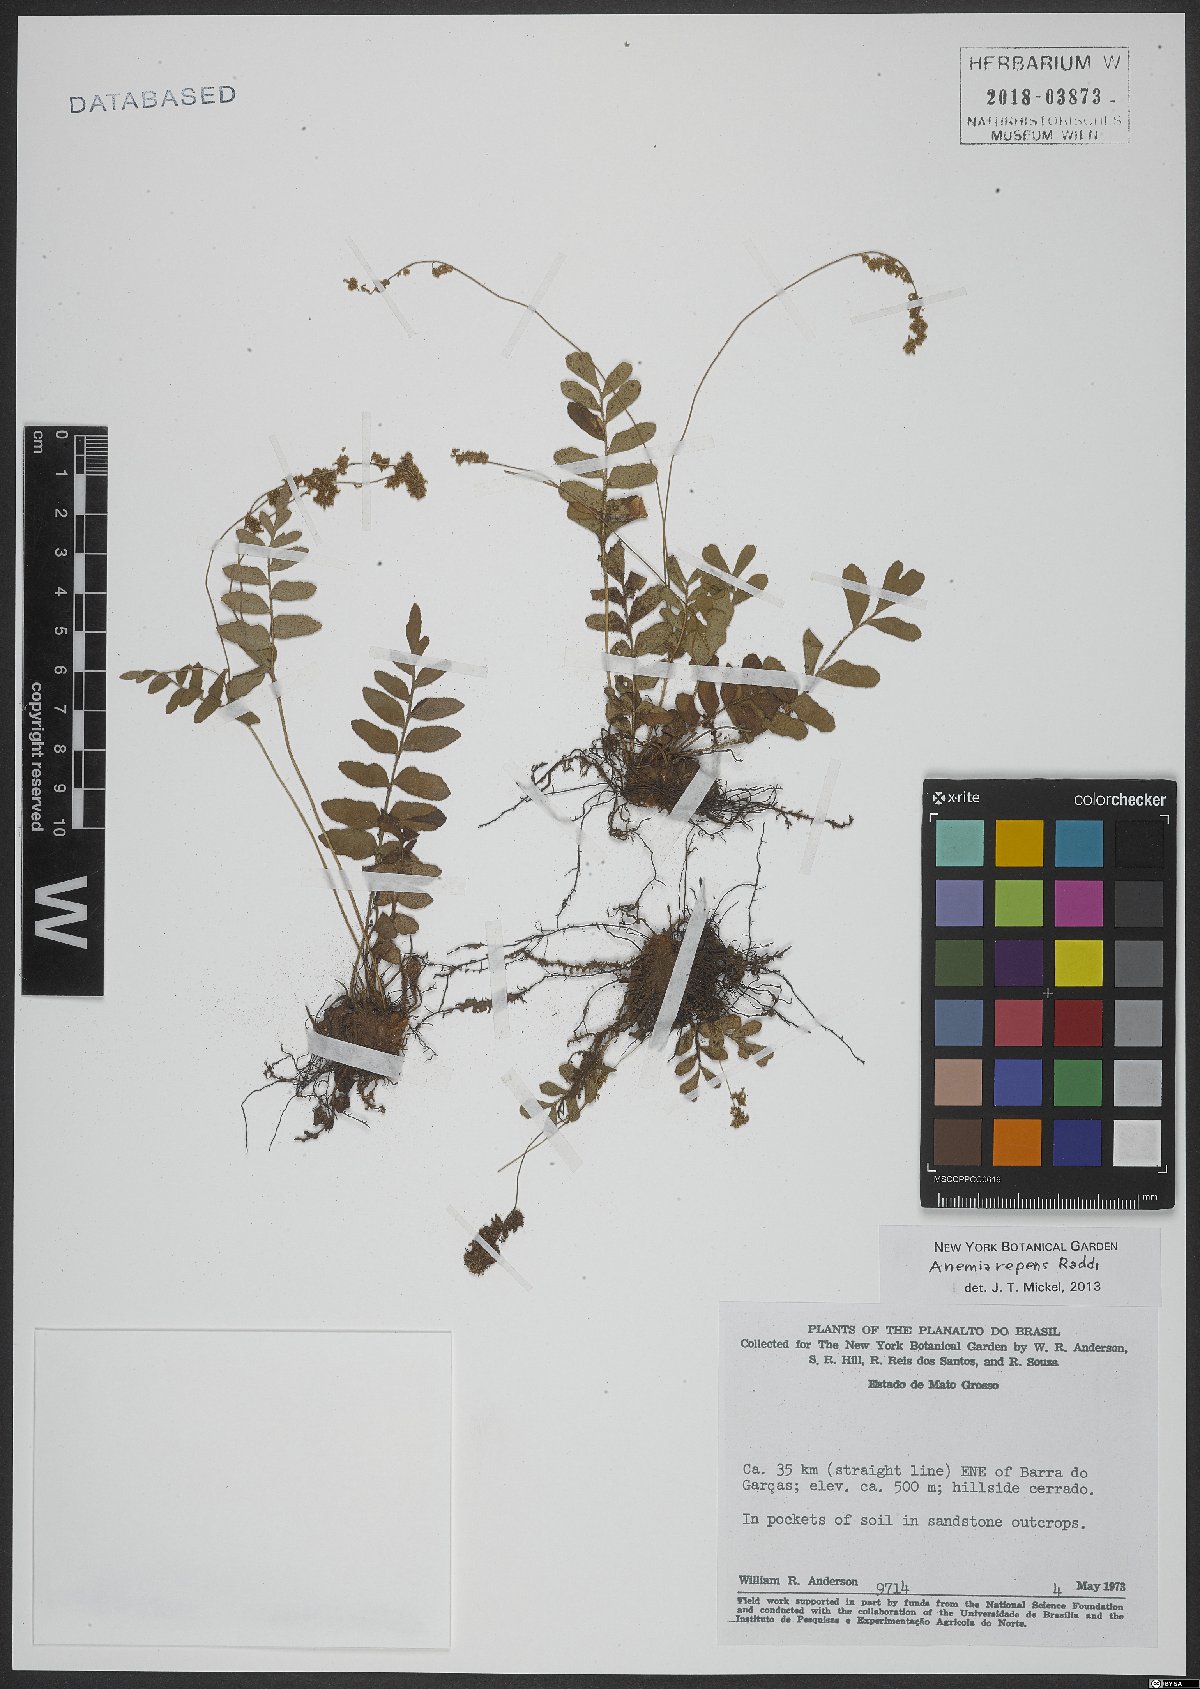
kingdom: Plantae
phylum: Tracheophyta
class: Polypodiopsida
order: Schizaeales
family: Anemiaceae
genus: Anemia
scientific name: Anemia repens
